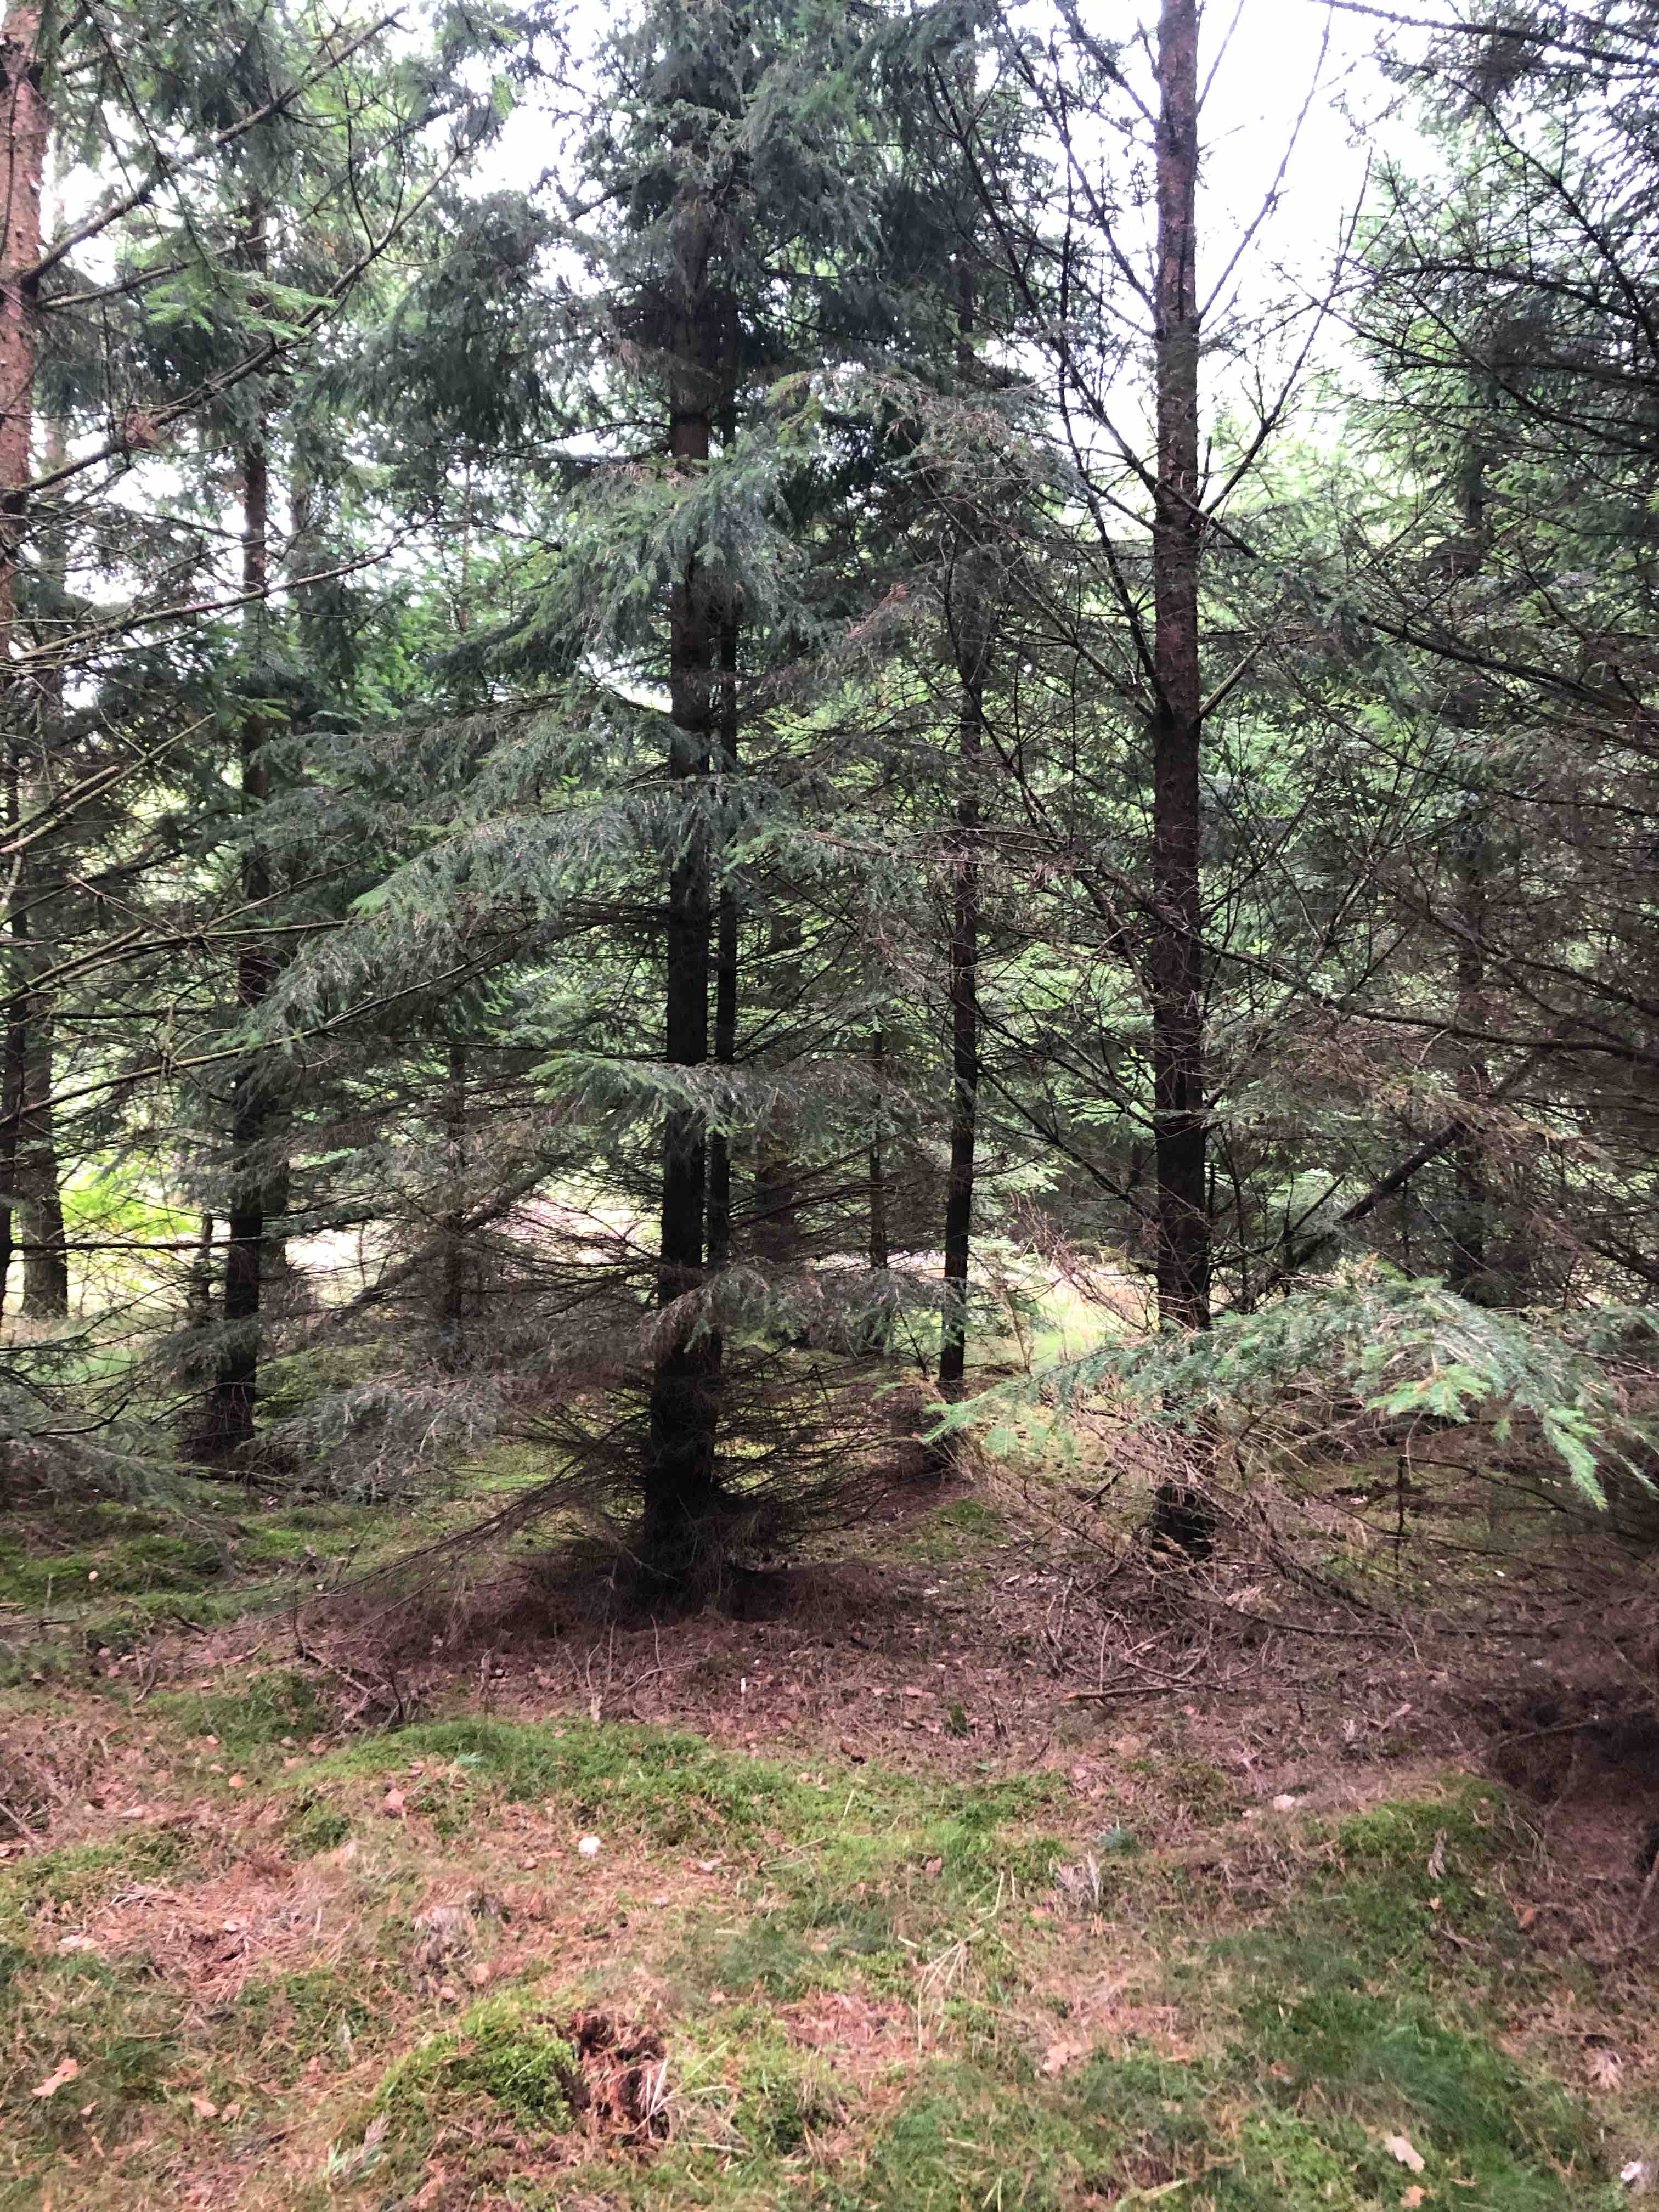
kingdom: Fungi
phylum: Basidiomycota
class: Agaricomycetes
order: Russulales
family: Russulaceae
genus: Russula
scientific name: Russula emetica
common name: stor gift-skørhat
